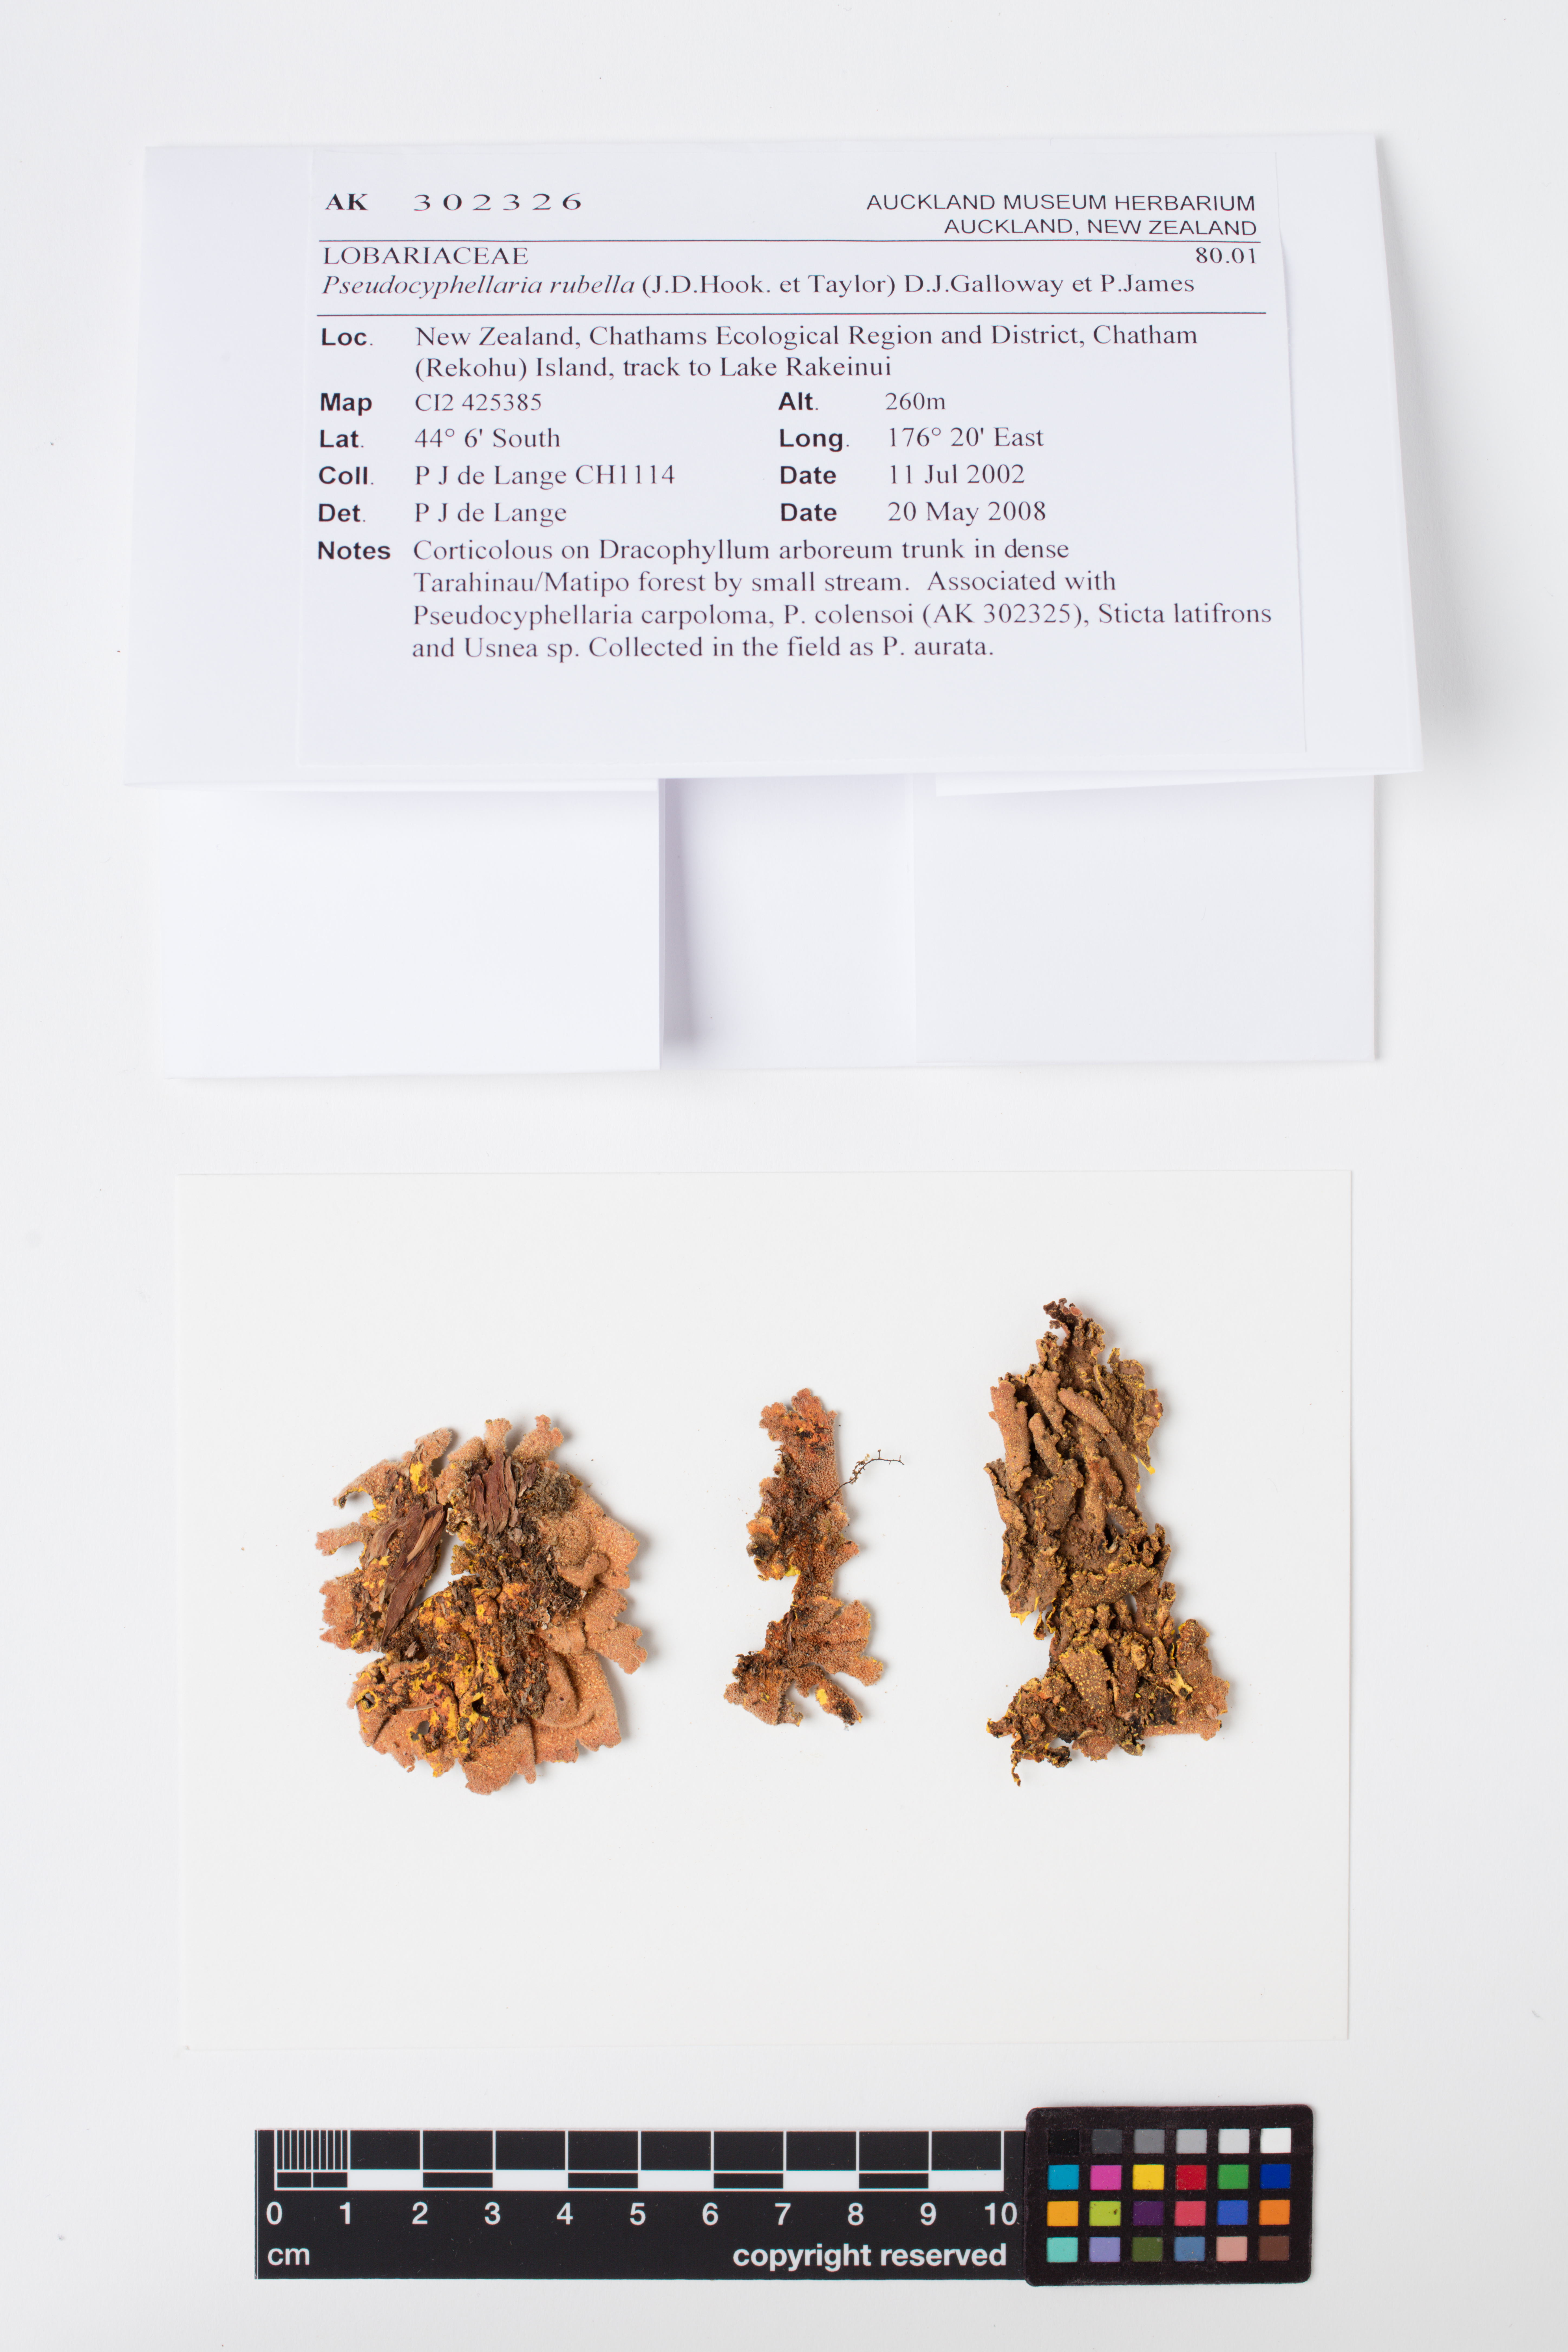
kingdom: Fungi
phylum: Ascomycota
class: Lecanoromycetes
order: Peltigerales
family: Lobariaceae
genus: Pseudocyphellaria
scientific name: Pseudocyphellaria rubella
